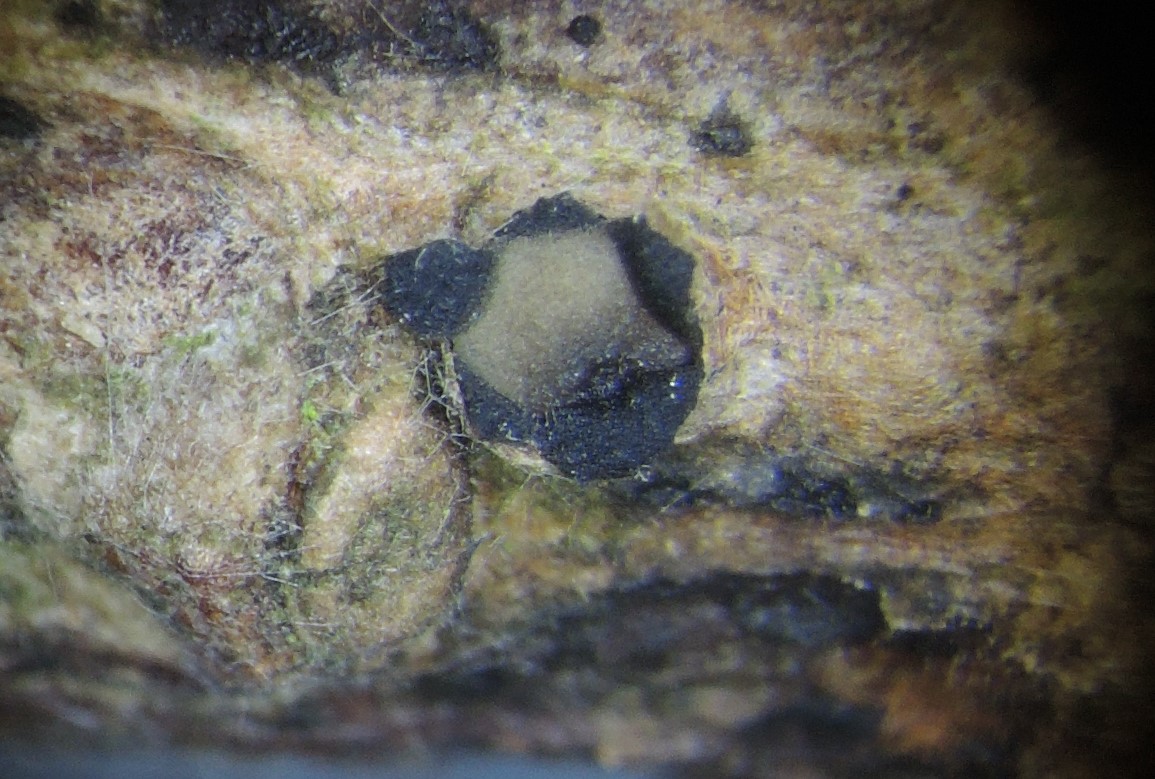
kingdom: Fungi
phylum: Ascomycota
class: Leotiomycetes
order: Rhytismatales
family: Rhytismataceae
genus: Therrya
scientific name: Therrya pini
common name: fyrre-tandskive
